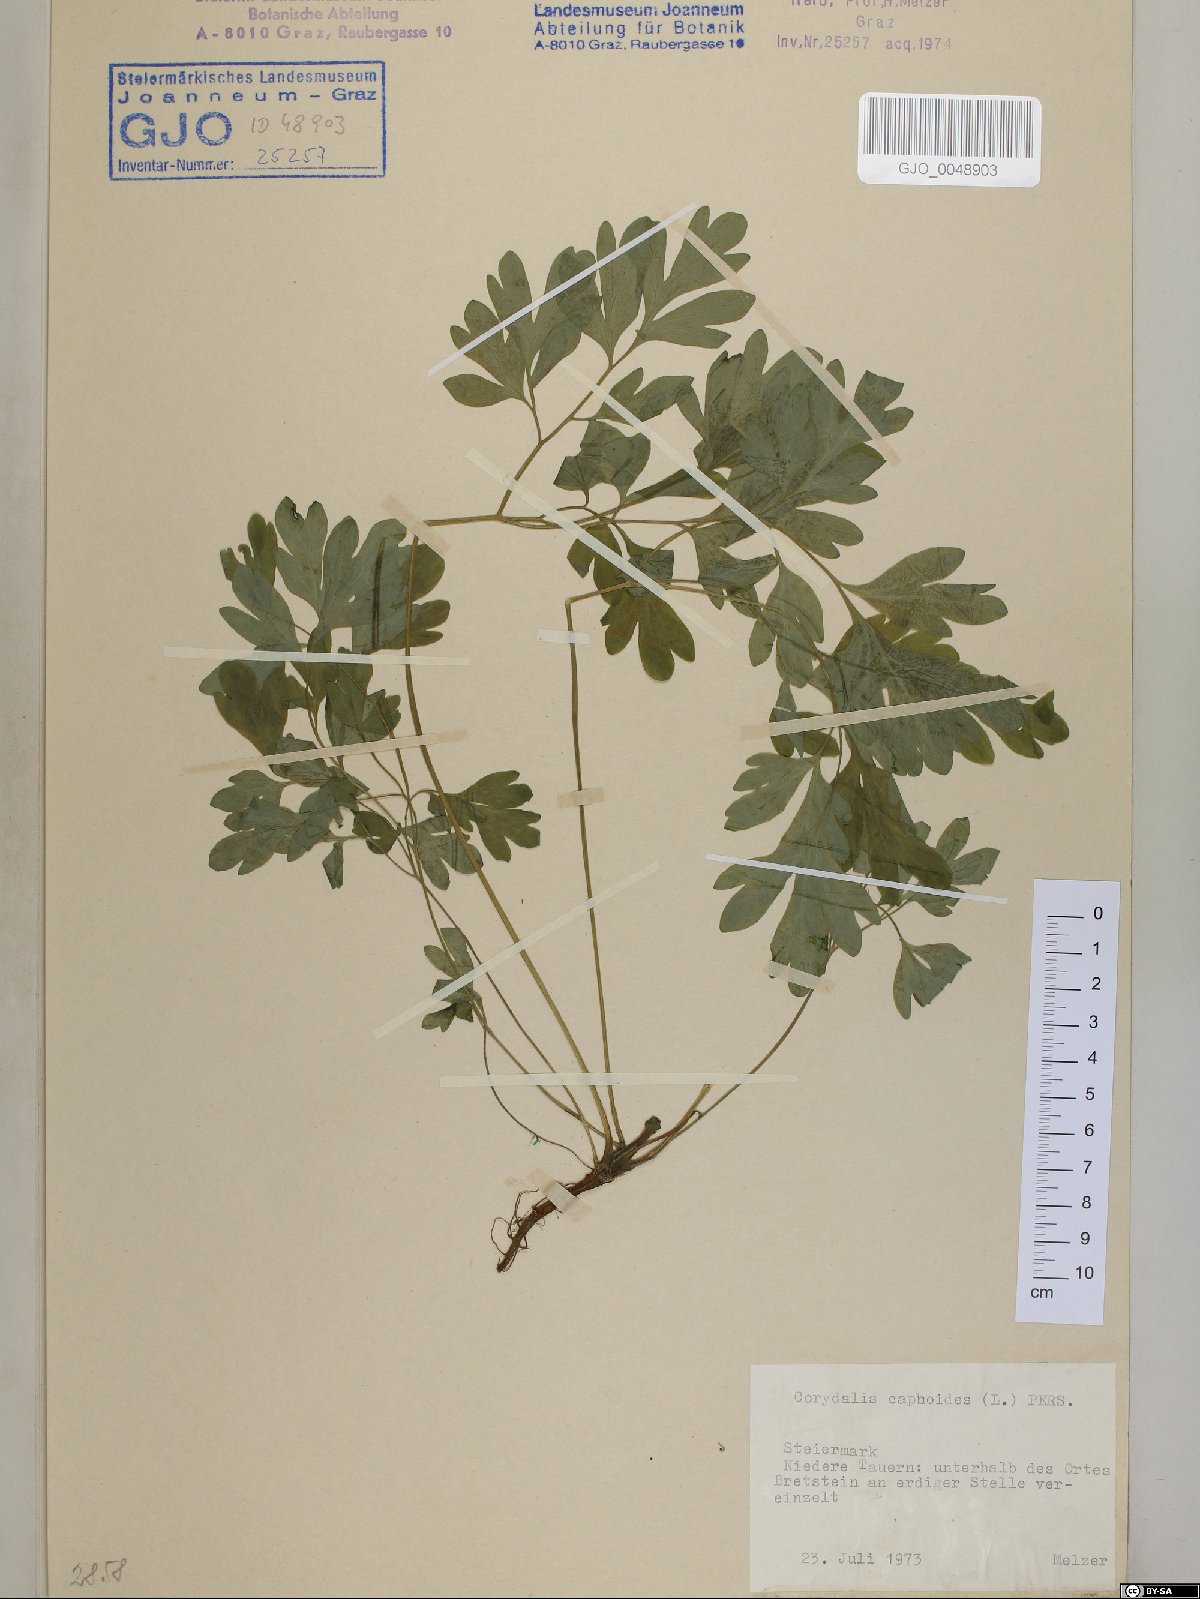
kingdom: Plantae
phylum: Tracheophyta
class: Magnoliopsida
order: Ranunculales
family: Papaveraceae
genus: Corydalis
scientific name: Corydalis capnoides
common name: Beaked corydalis
